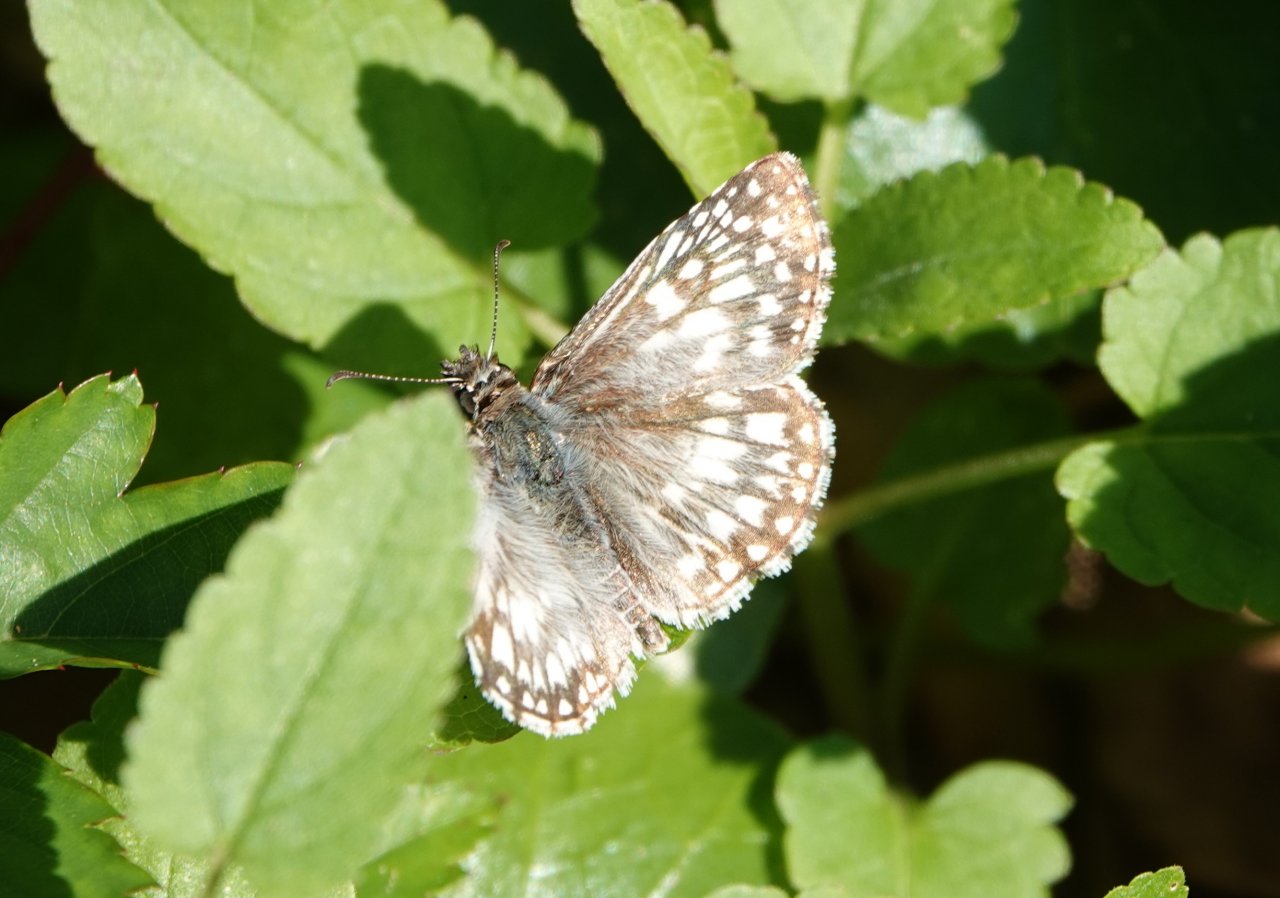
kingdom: Animalia
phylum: Arthropoda
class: Insecta
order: Lepidoptera
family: Hesperiidae
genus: Pyrgus
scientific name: Pyrgus oileus
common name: Tropical Checkered-Skipper
